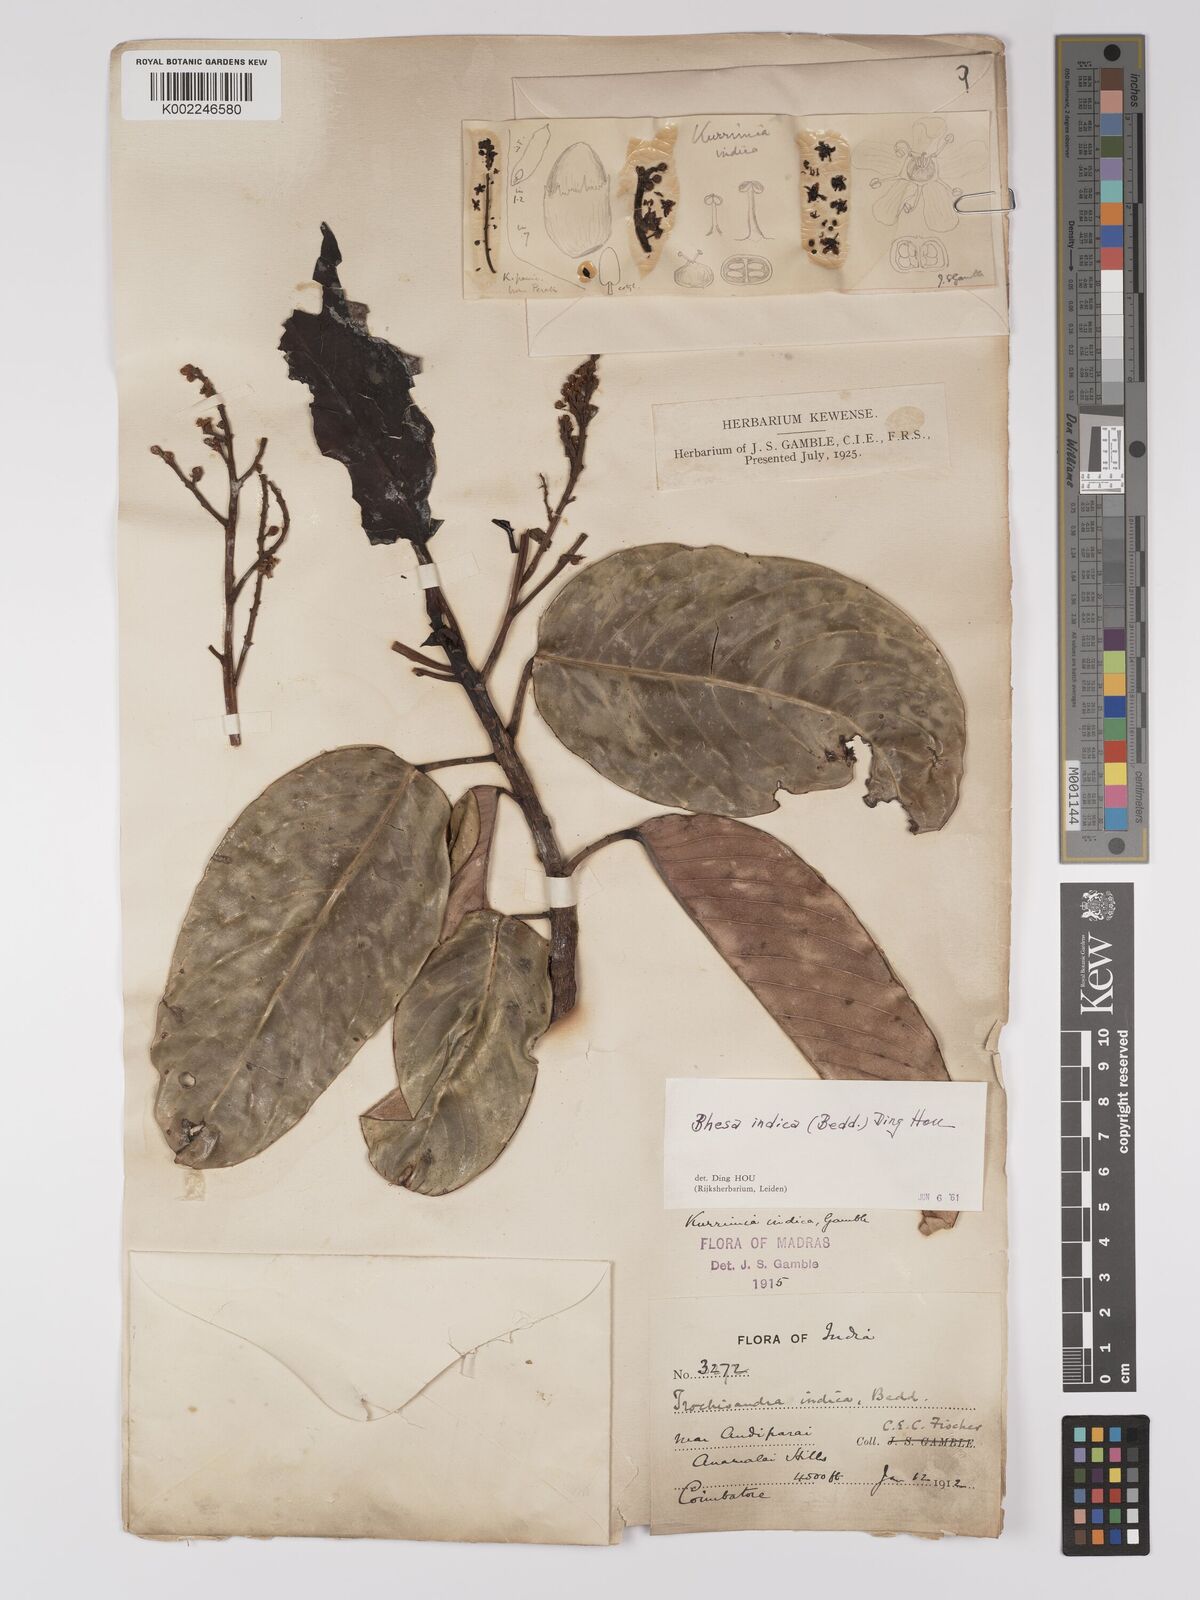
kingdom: Plantae
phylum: Tracheophyta
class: Magnoliopsida
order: Malpighiales
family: Centroplacaceae
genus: Bhesa
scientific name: Bhesa indica
